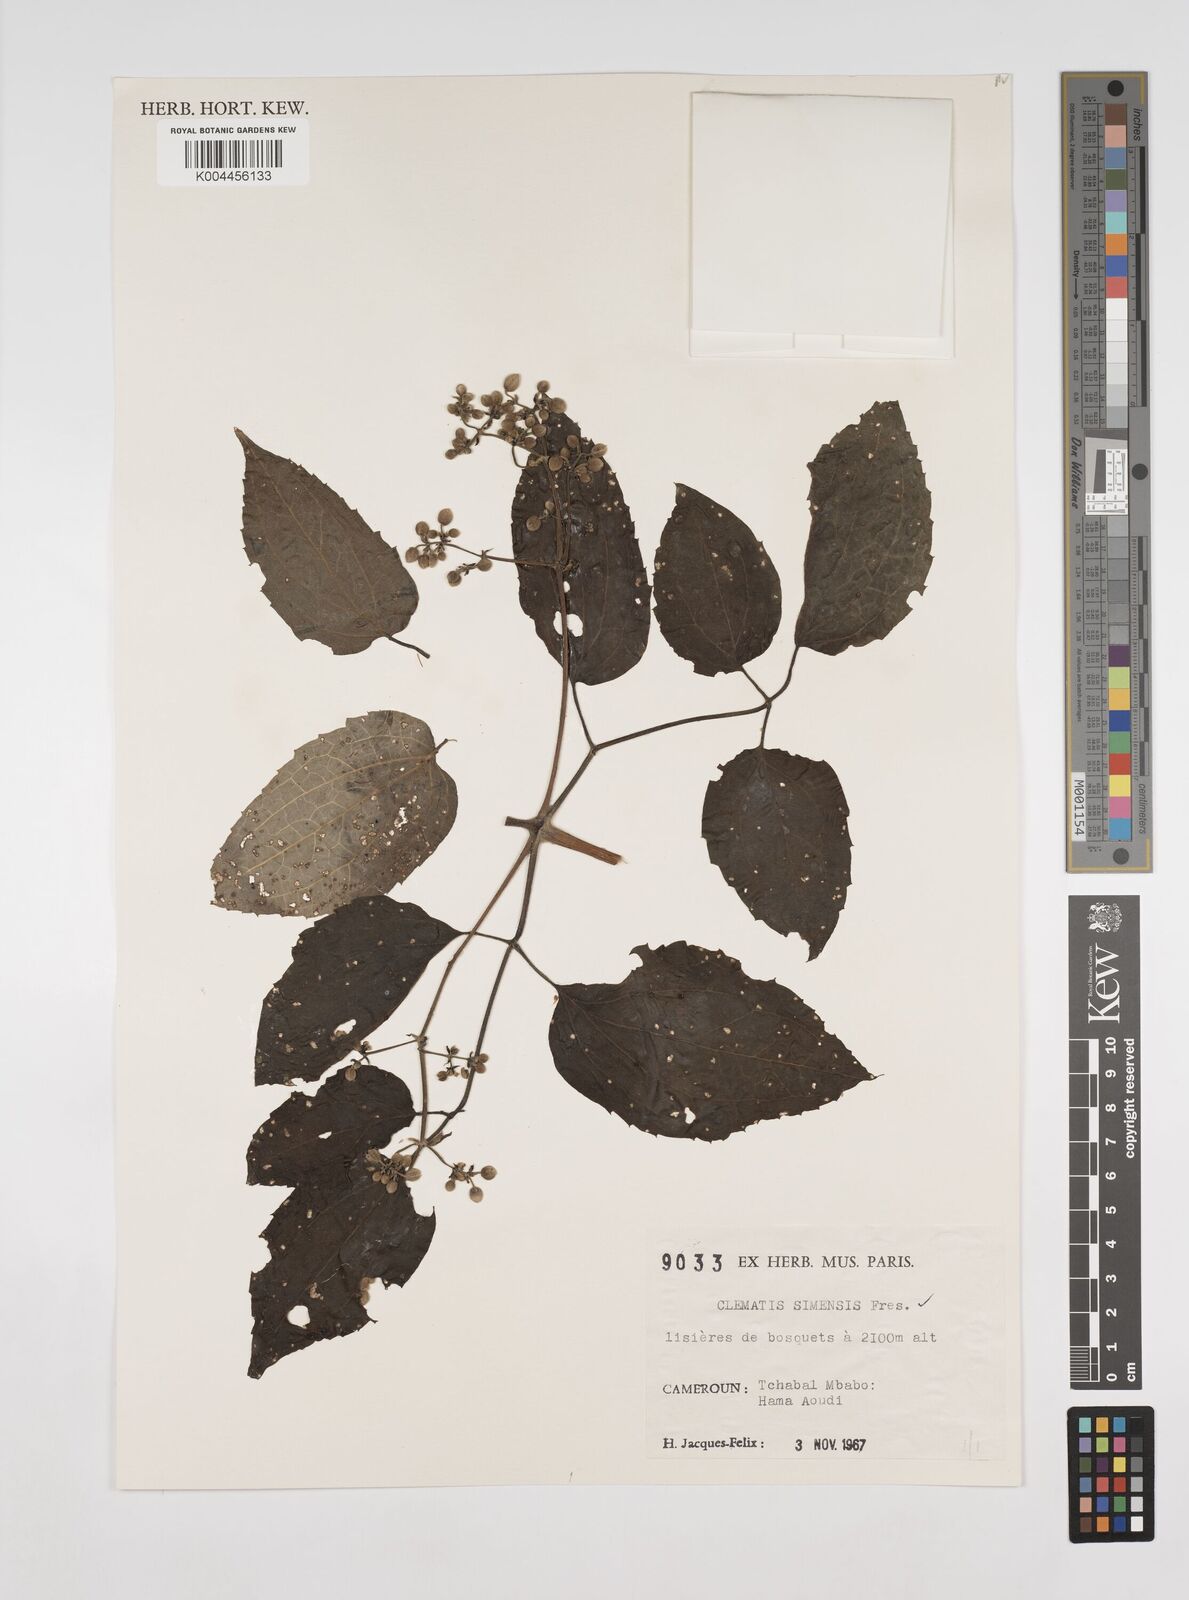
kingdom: Plantae
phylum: Tracheophyta
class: Magnoliopsida
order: Ranunculales
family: Ranunculaceae
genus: Clematis
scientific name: Clematis simensis
